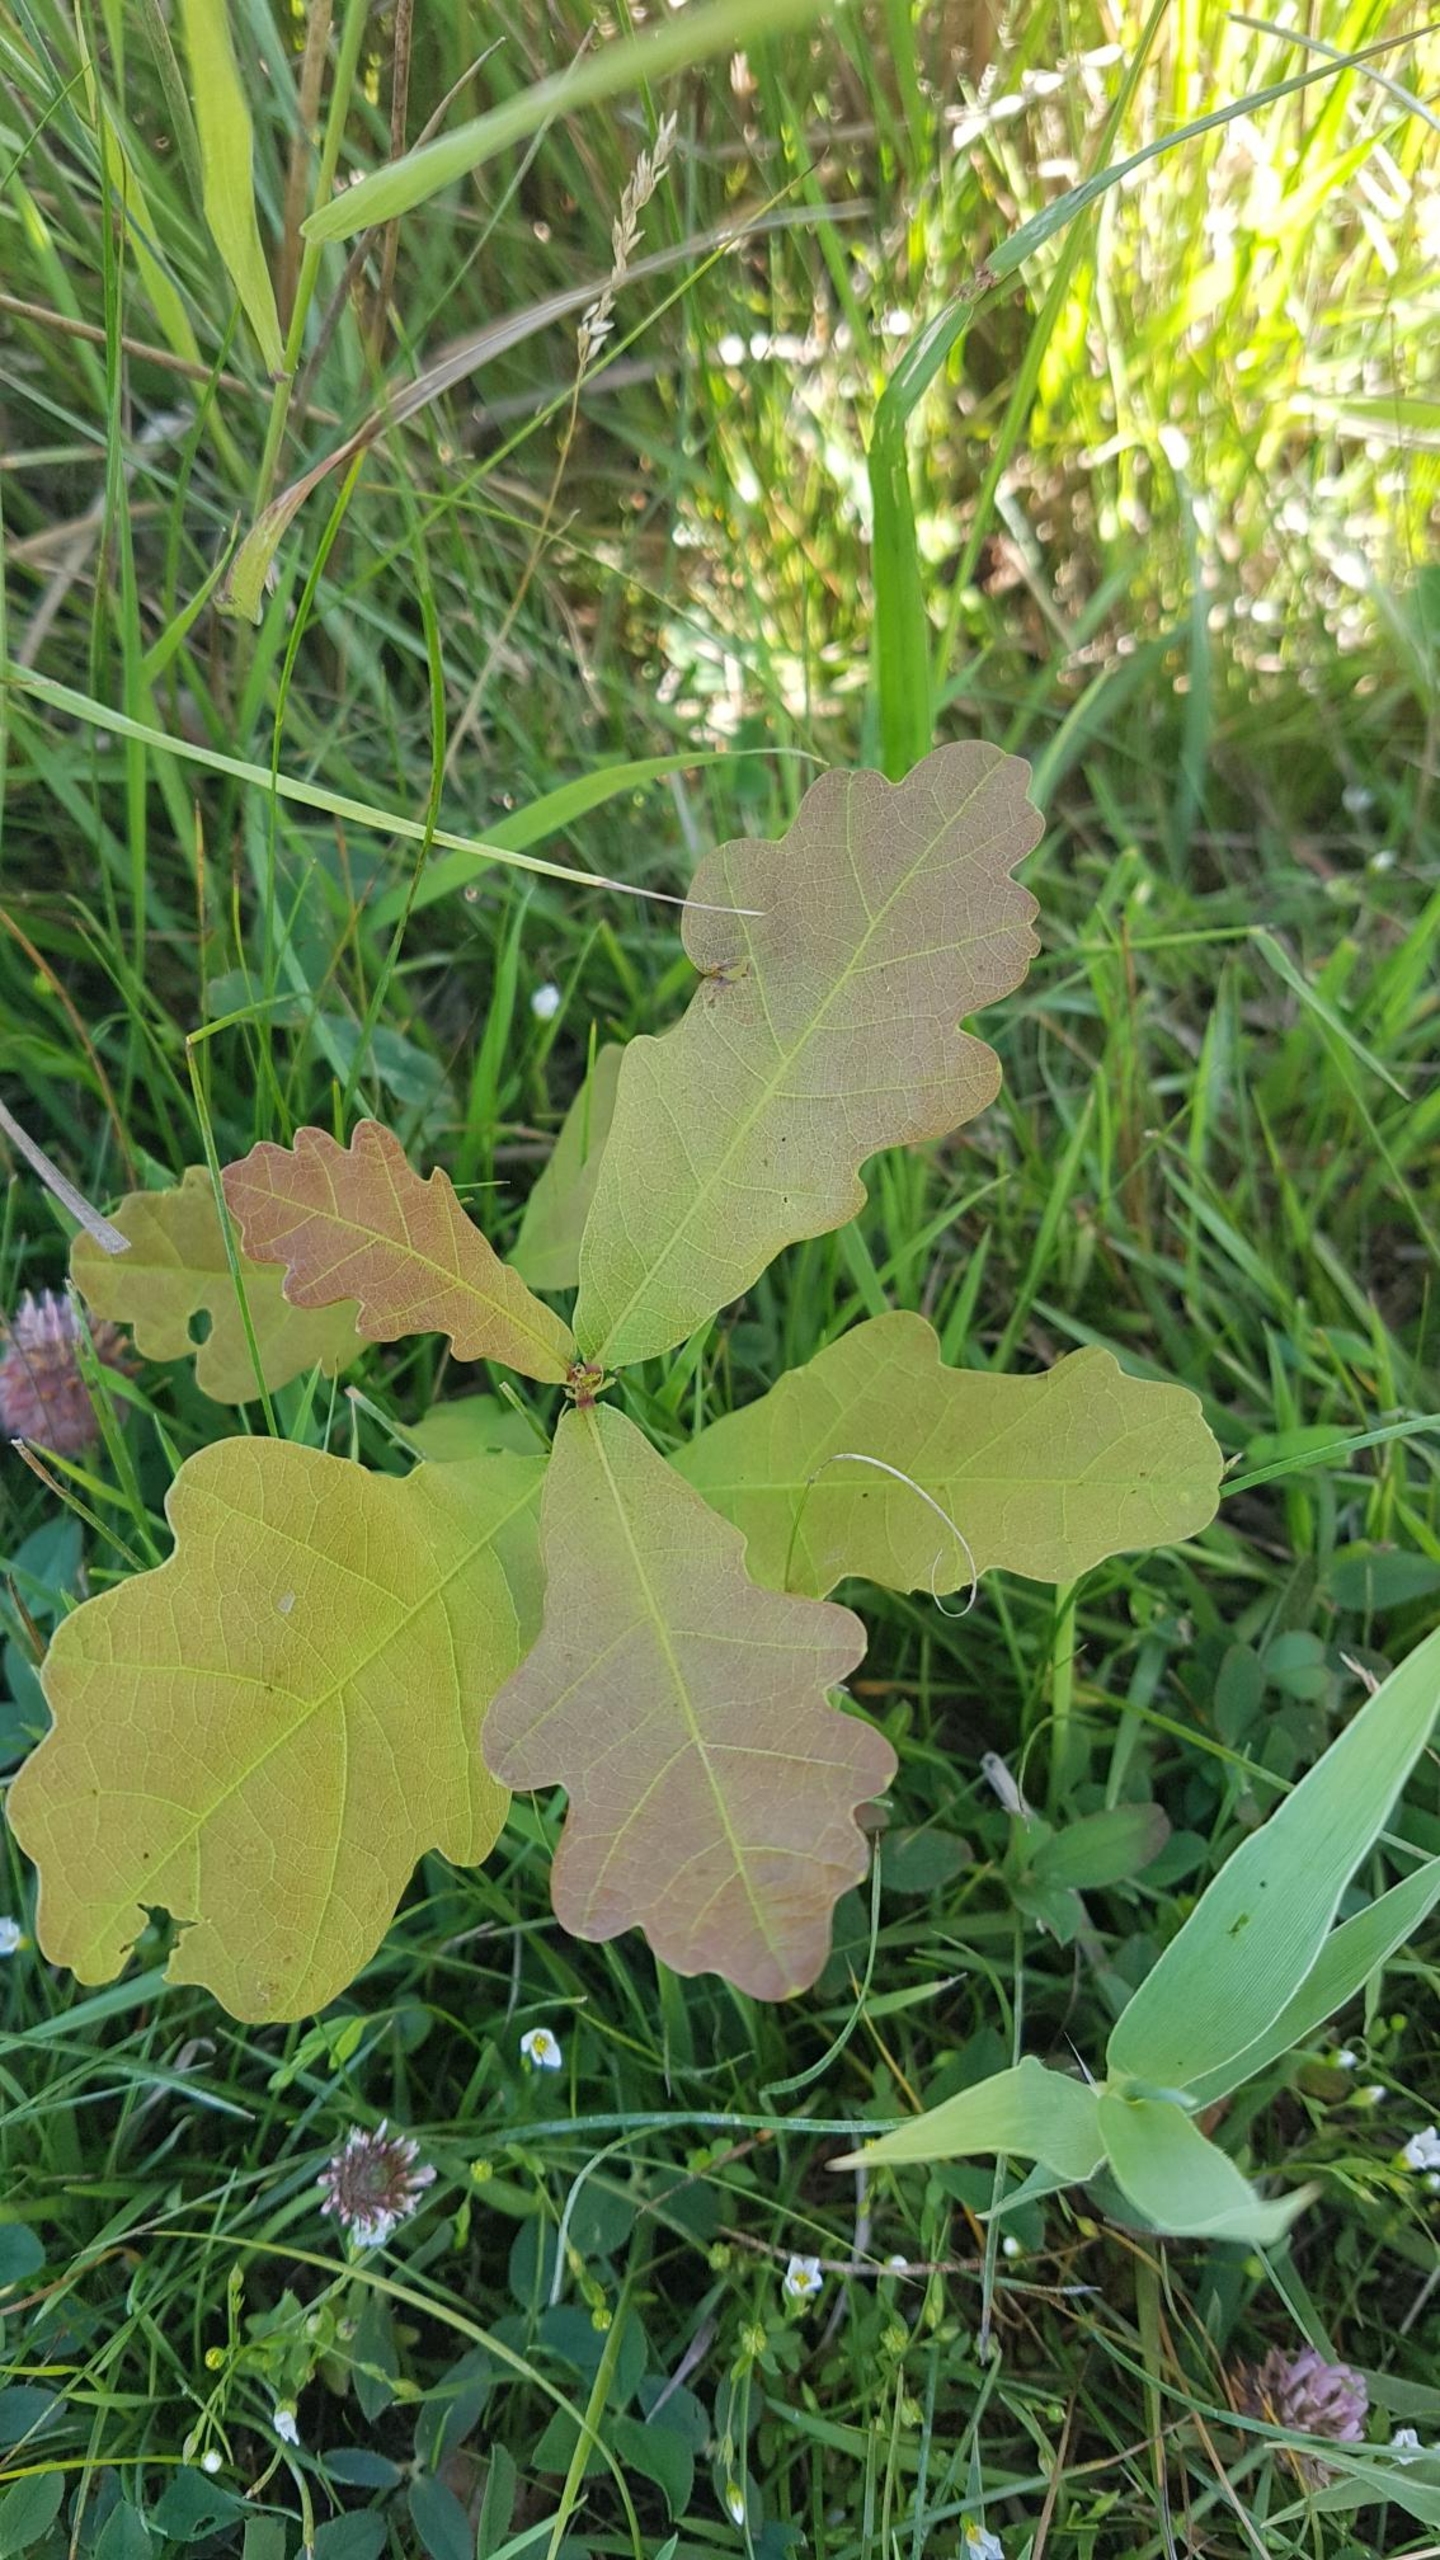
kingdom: Plantae
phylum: Tracheophyta
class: Magnoliopsida
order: Fagales
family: Fagaceae
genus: Quercus
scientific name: Quercus robur
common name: Stilk-eg/almindelig eg
